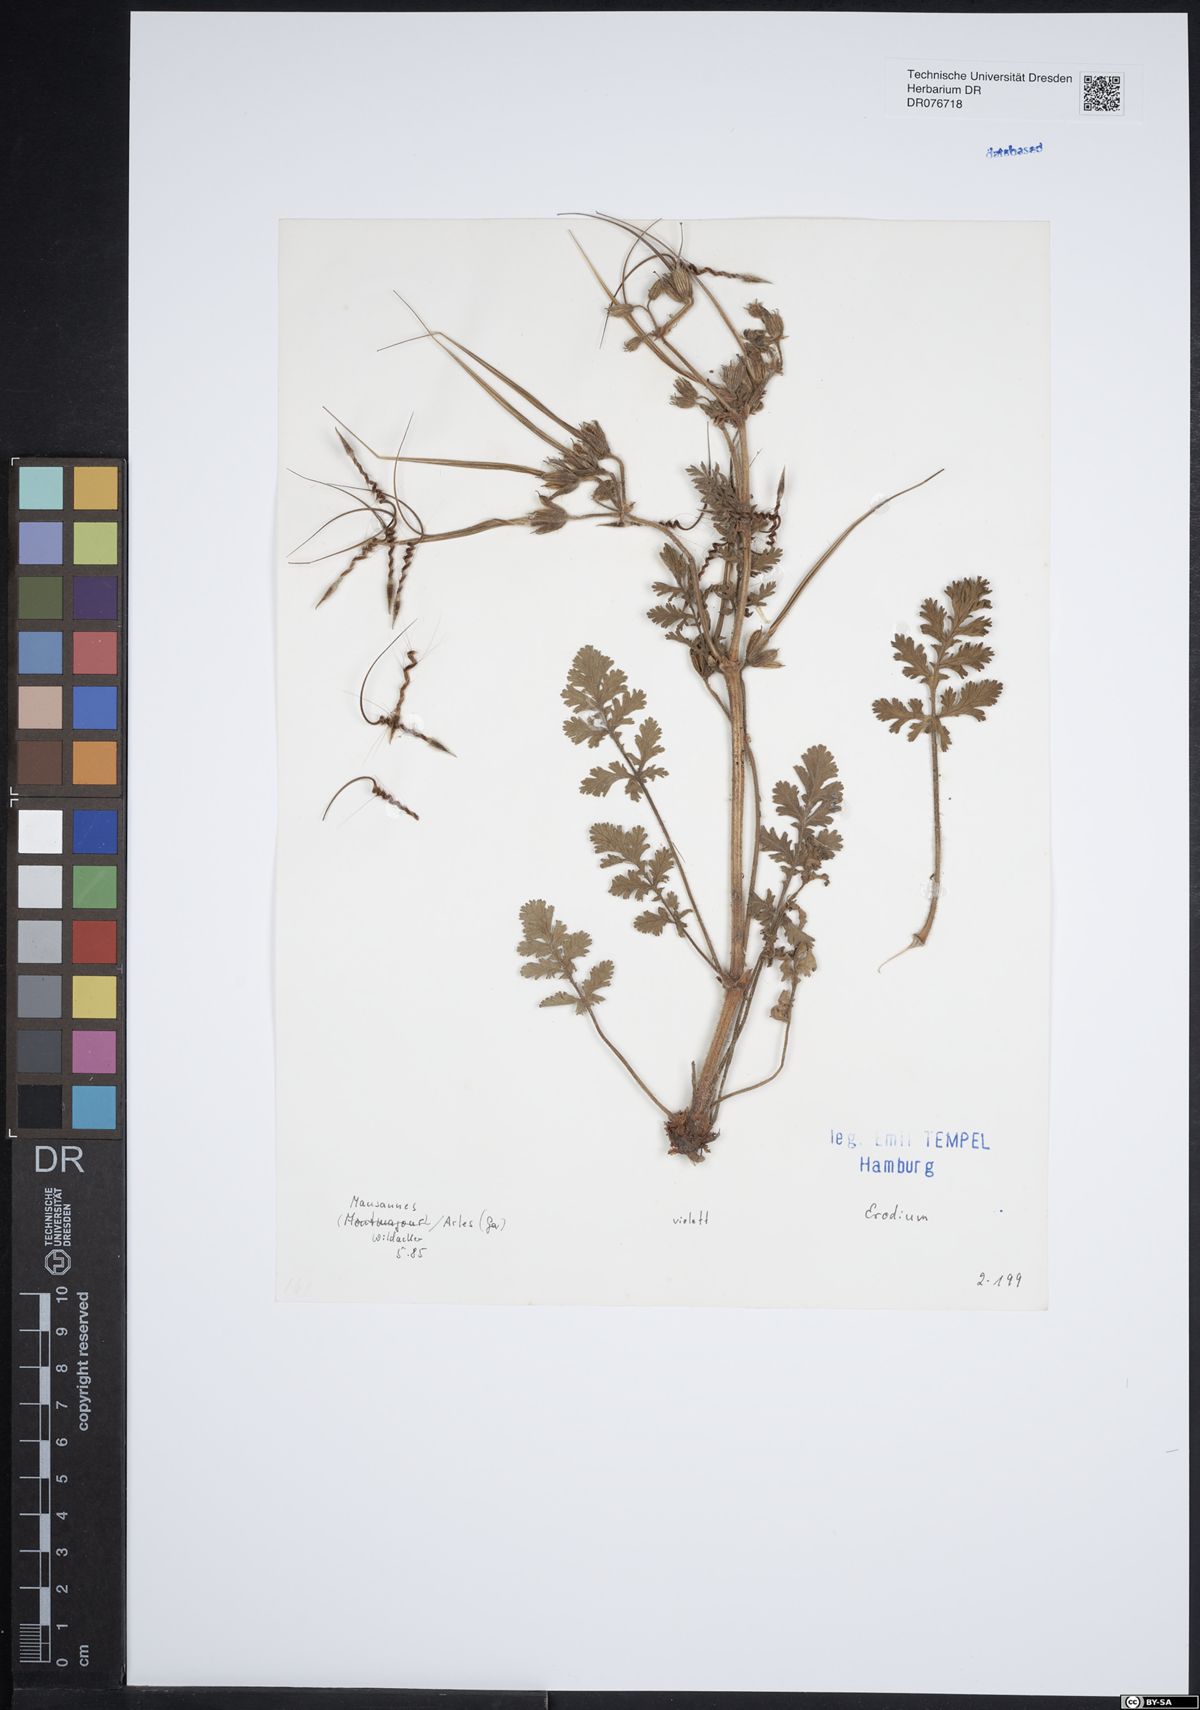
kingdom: Plantae
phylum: Tracheophyta
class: Magnoliopsida
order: Geraniales
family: Geraniaceae
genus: Erodium
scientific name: Erodium
